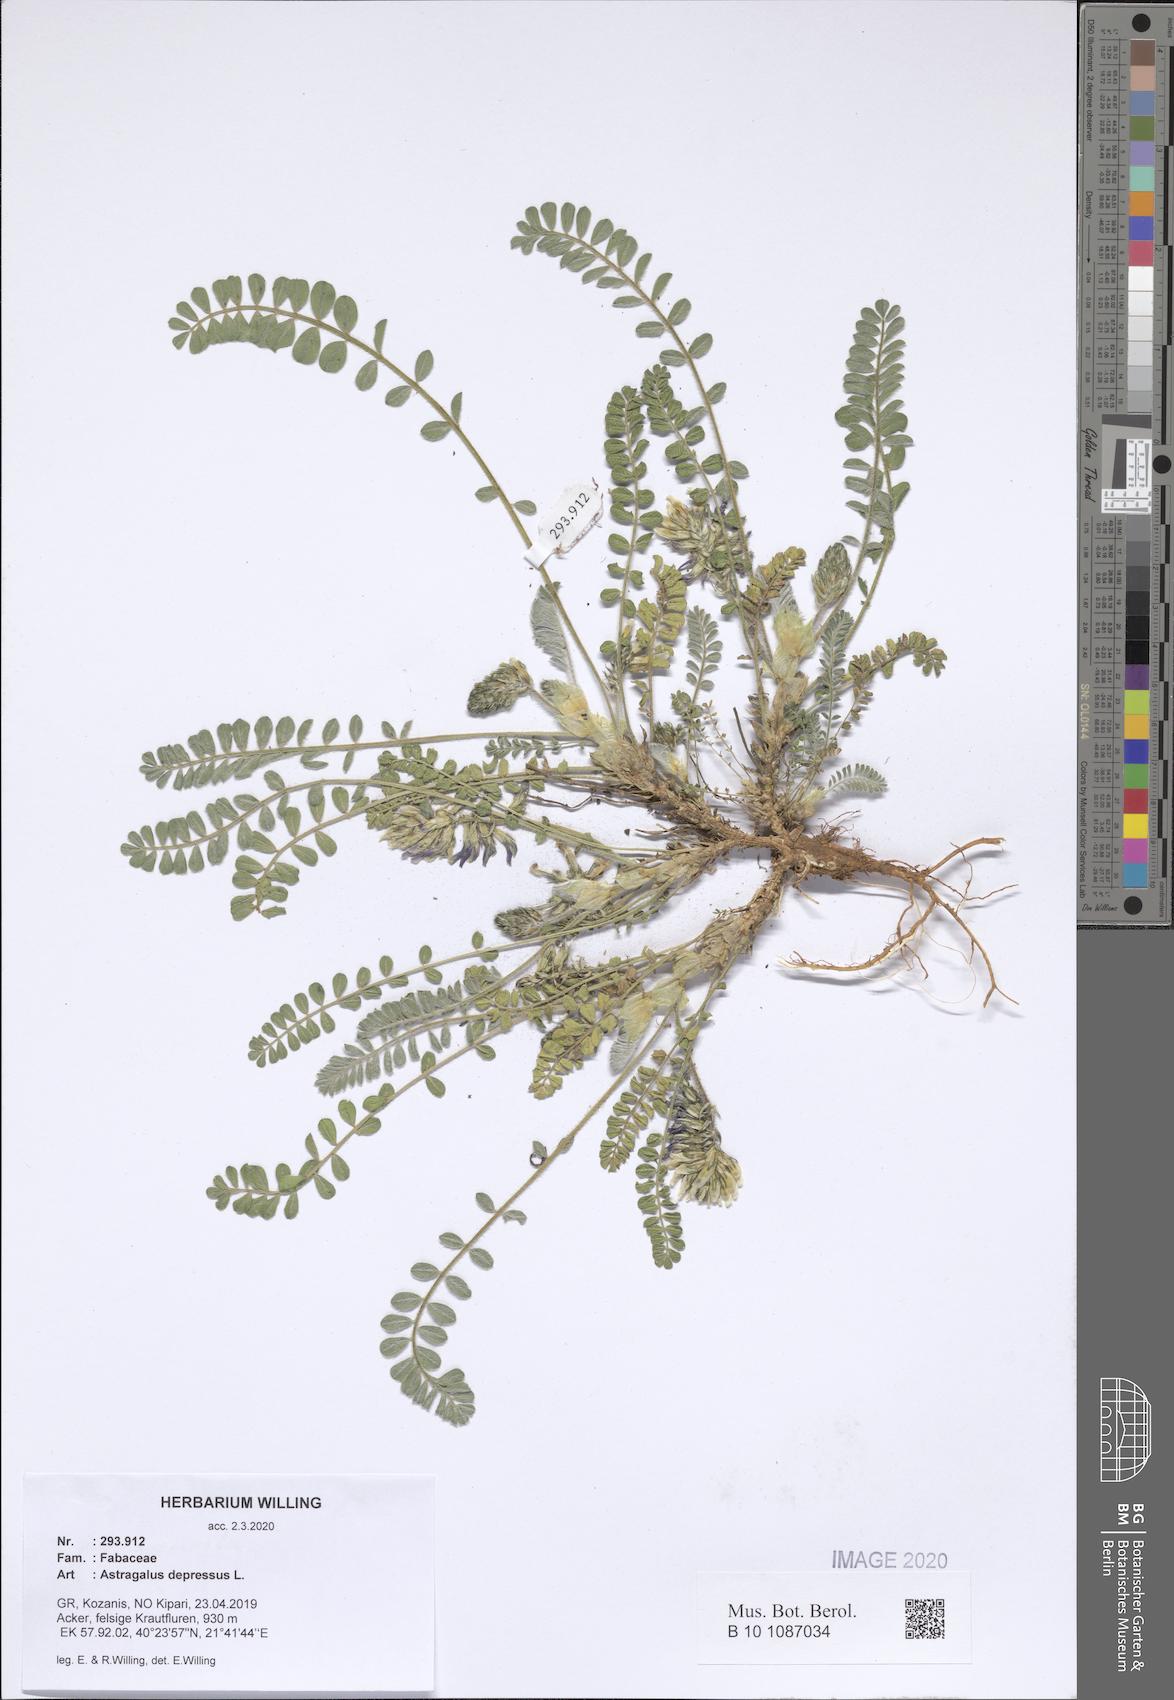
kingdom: Plantae
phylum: Tracheophyta
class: Magnoliopsida
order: Fabales
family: Fabaceae
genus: Astragalus
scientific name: Astragalus depressus
